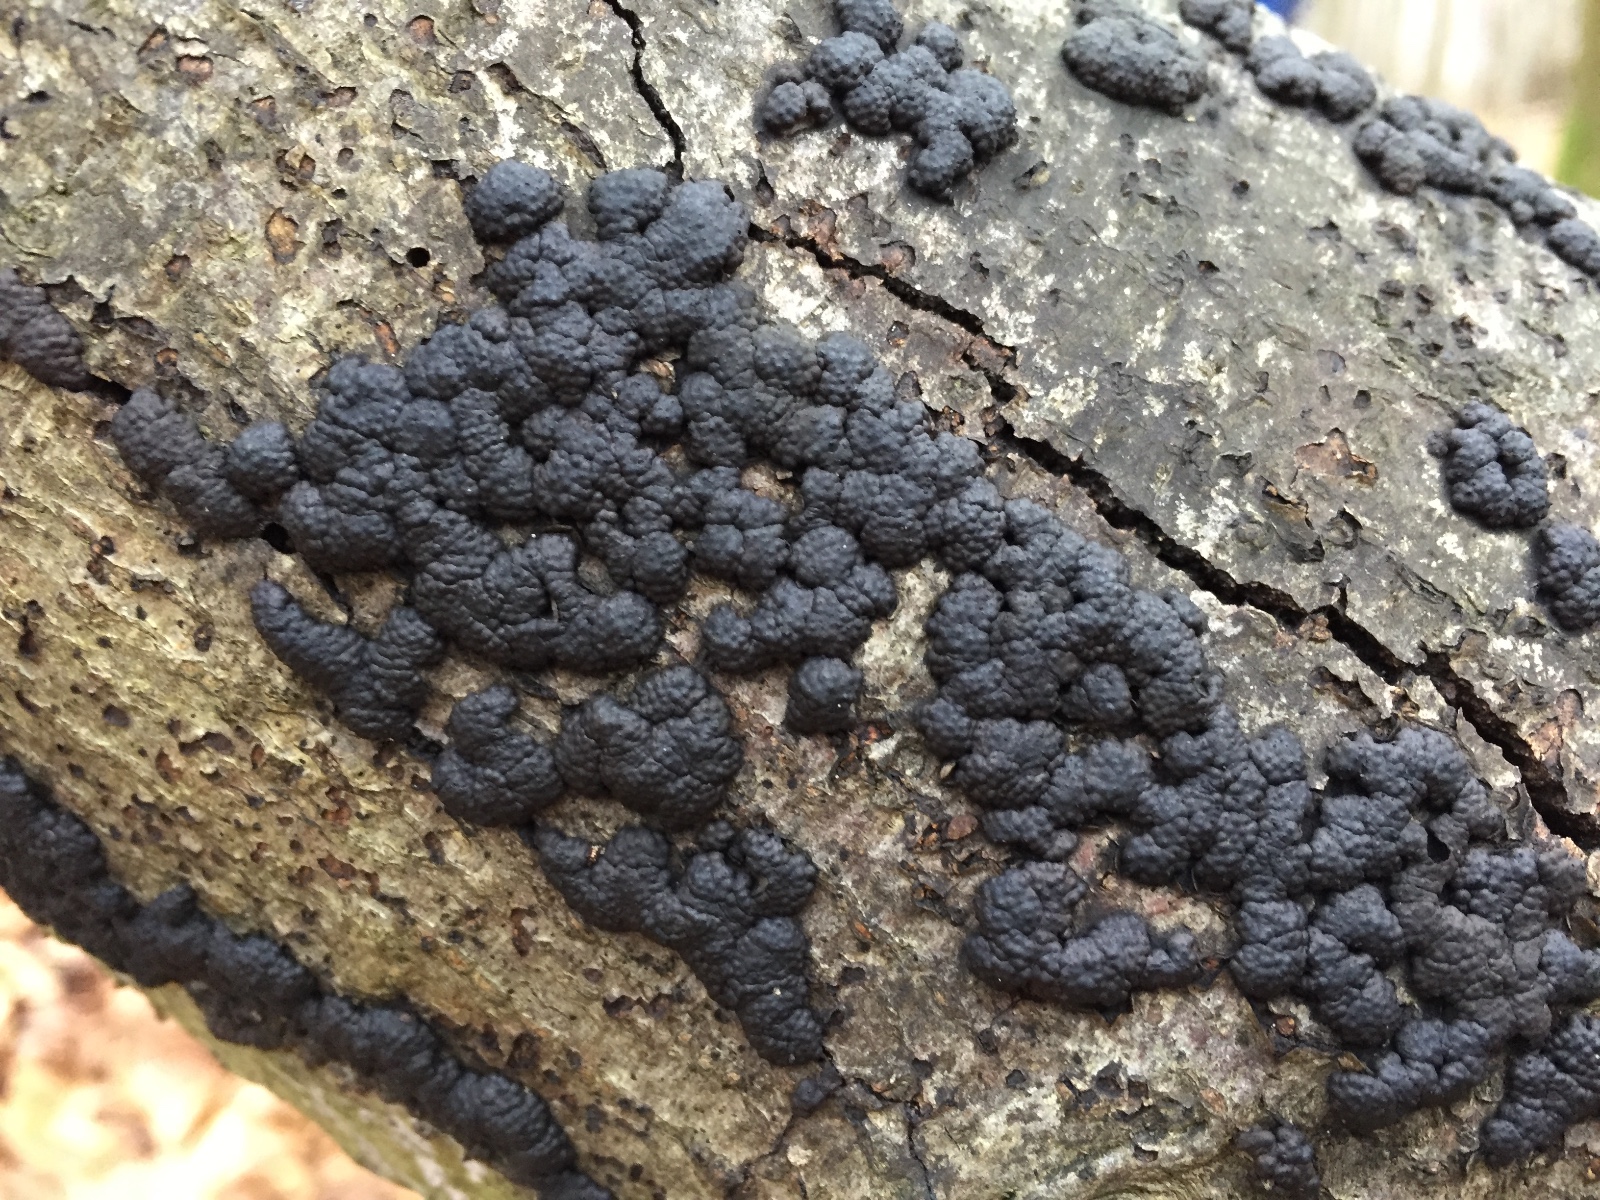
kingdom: Fungi
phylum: Ascomycota
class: Sordariomycetes
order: Xylariales
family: Hypoxylaceae
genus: Jackrogersella
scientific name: Jackrogersella cohaerens
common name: sammenflydende kulbær
